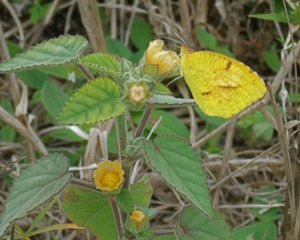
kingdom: Animalia
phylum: Arthropoda
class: Insecta
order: Lepidoptera
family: Pieridae
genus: Abaeis
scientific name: Abaeis nicippe
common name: Sleepy Orange
